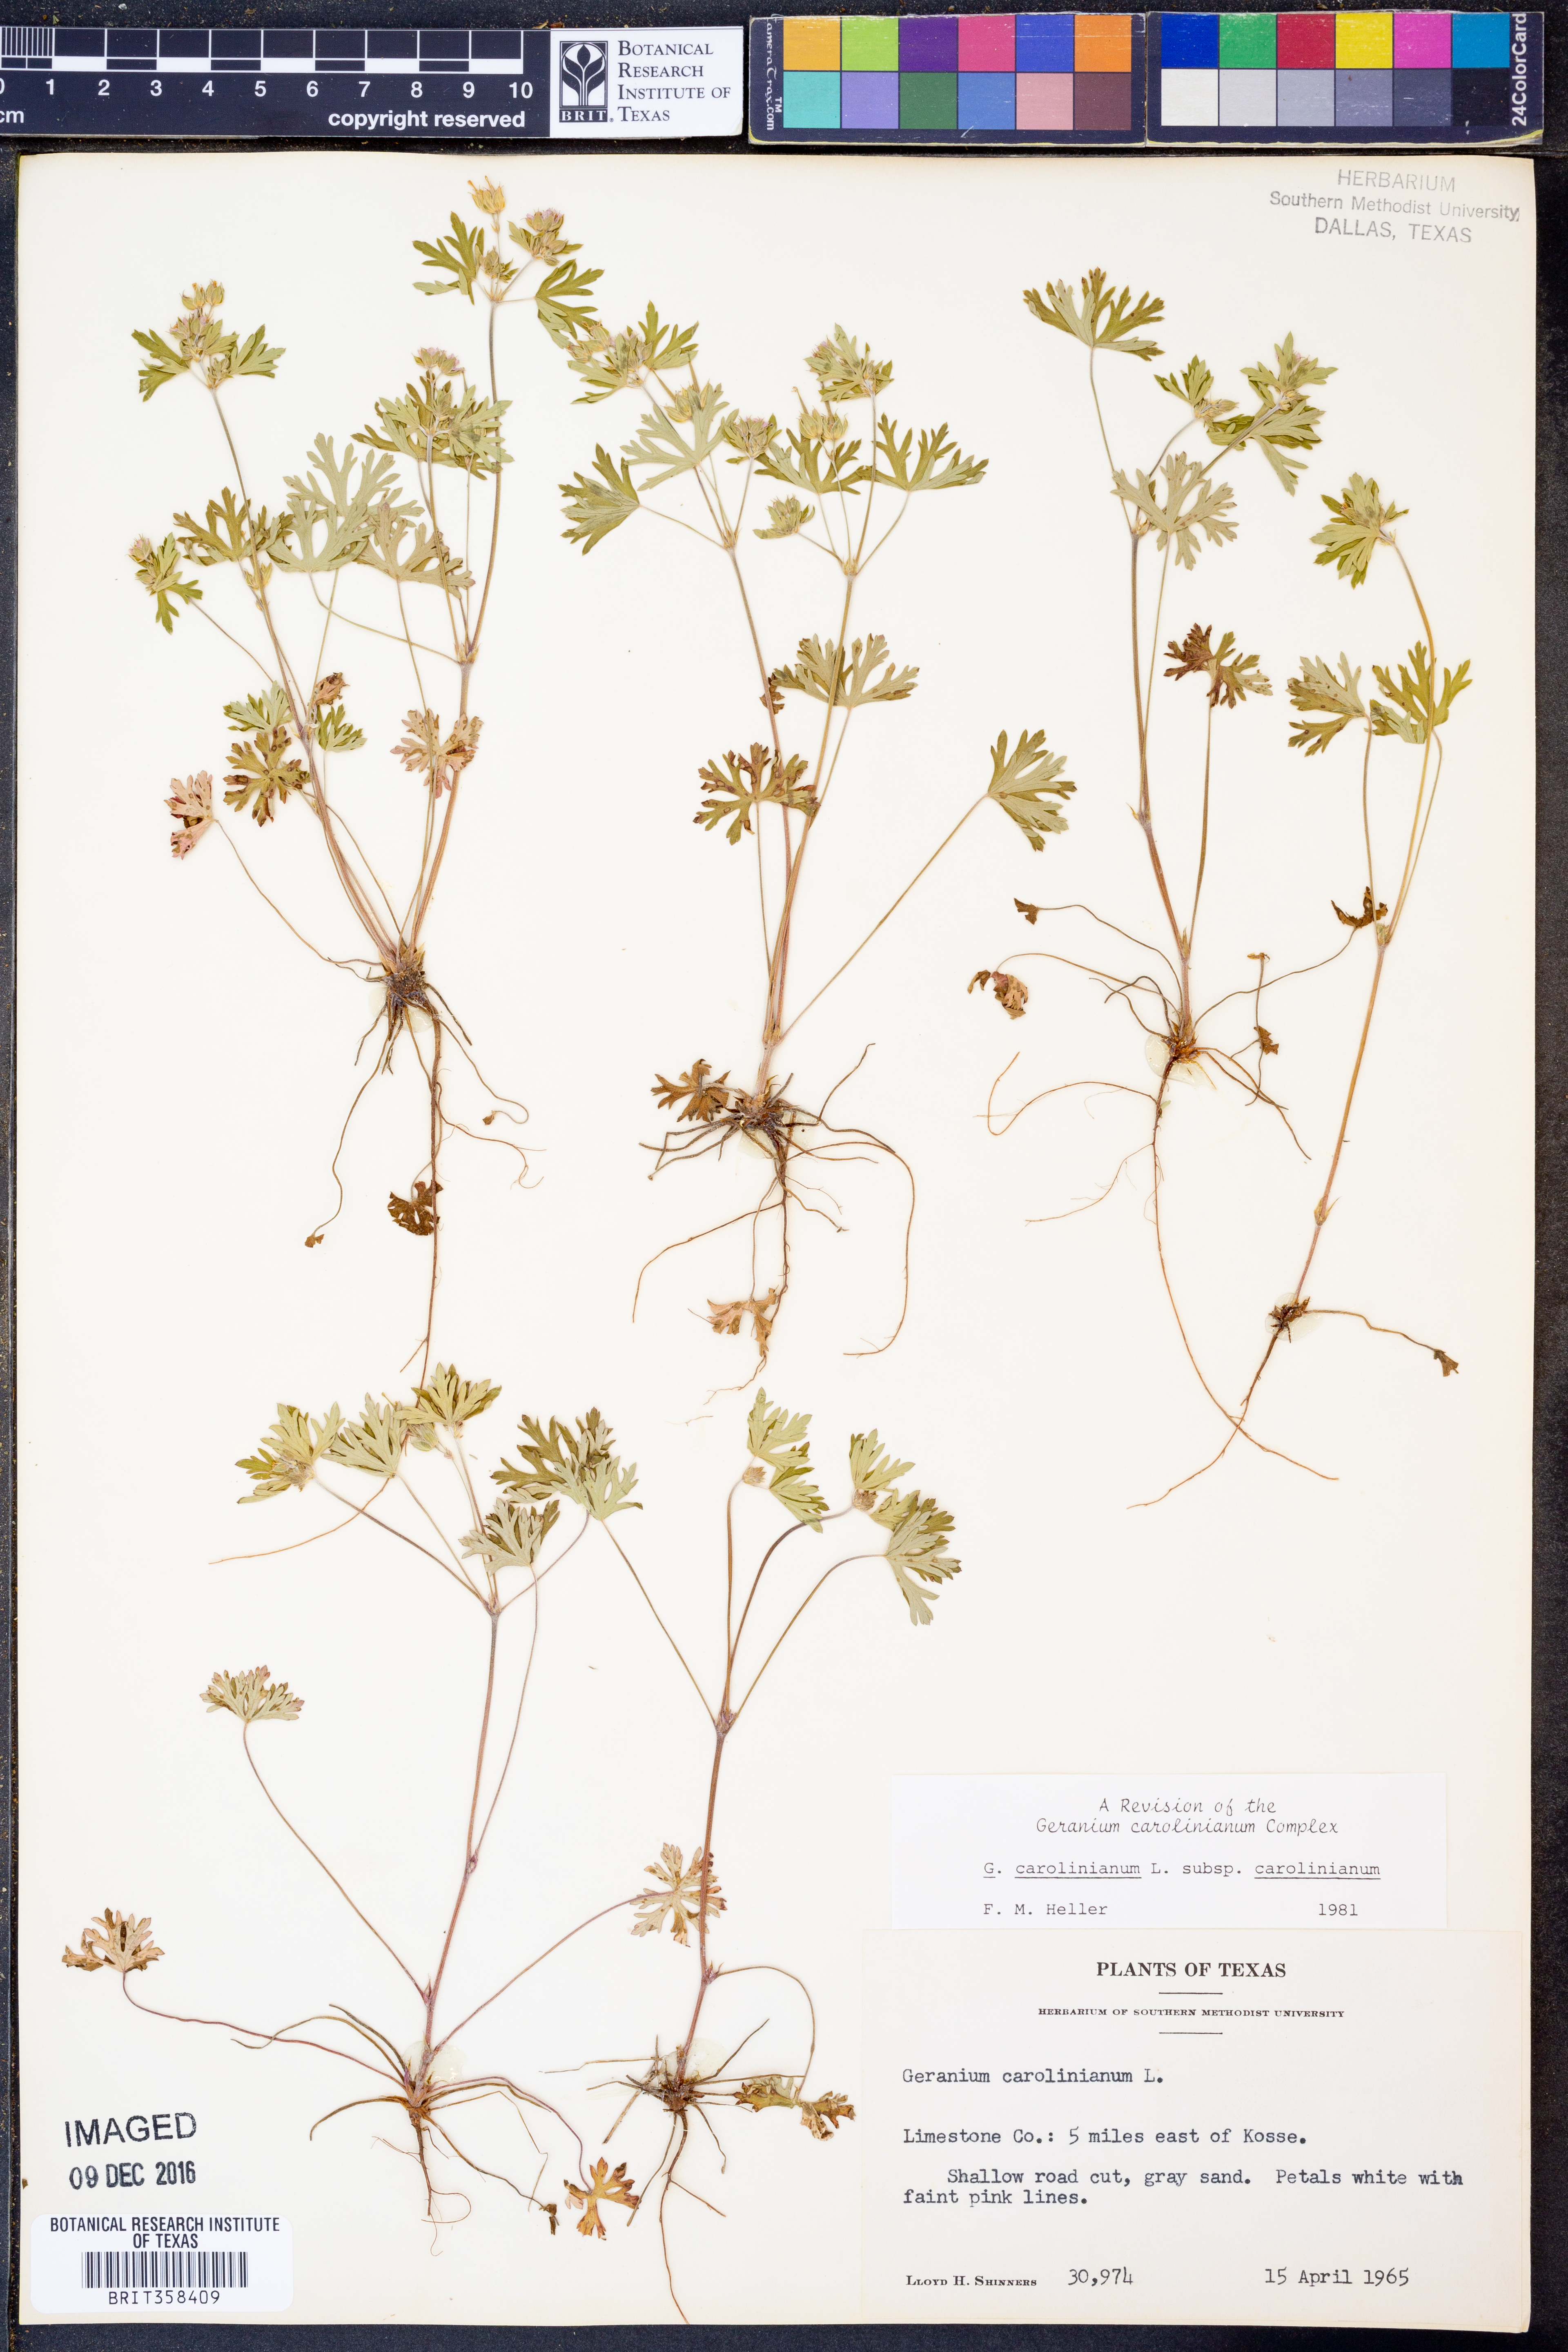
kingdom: Plantae
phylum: Tracheophyta
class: Magnoliopsida
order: Geraniales
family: Geraniaceae
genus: Geranium
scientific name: Geranium carolinianum
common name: Carolina crane's-bill
